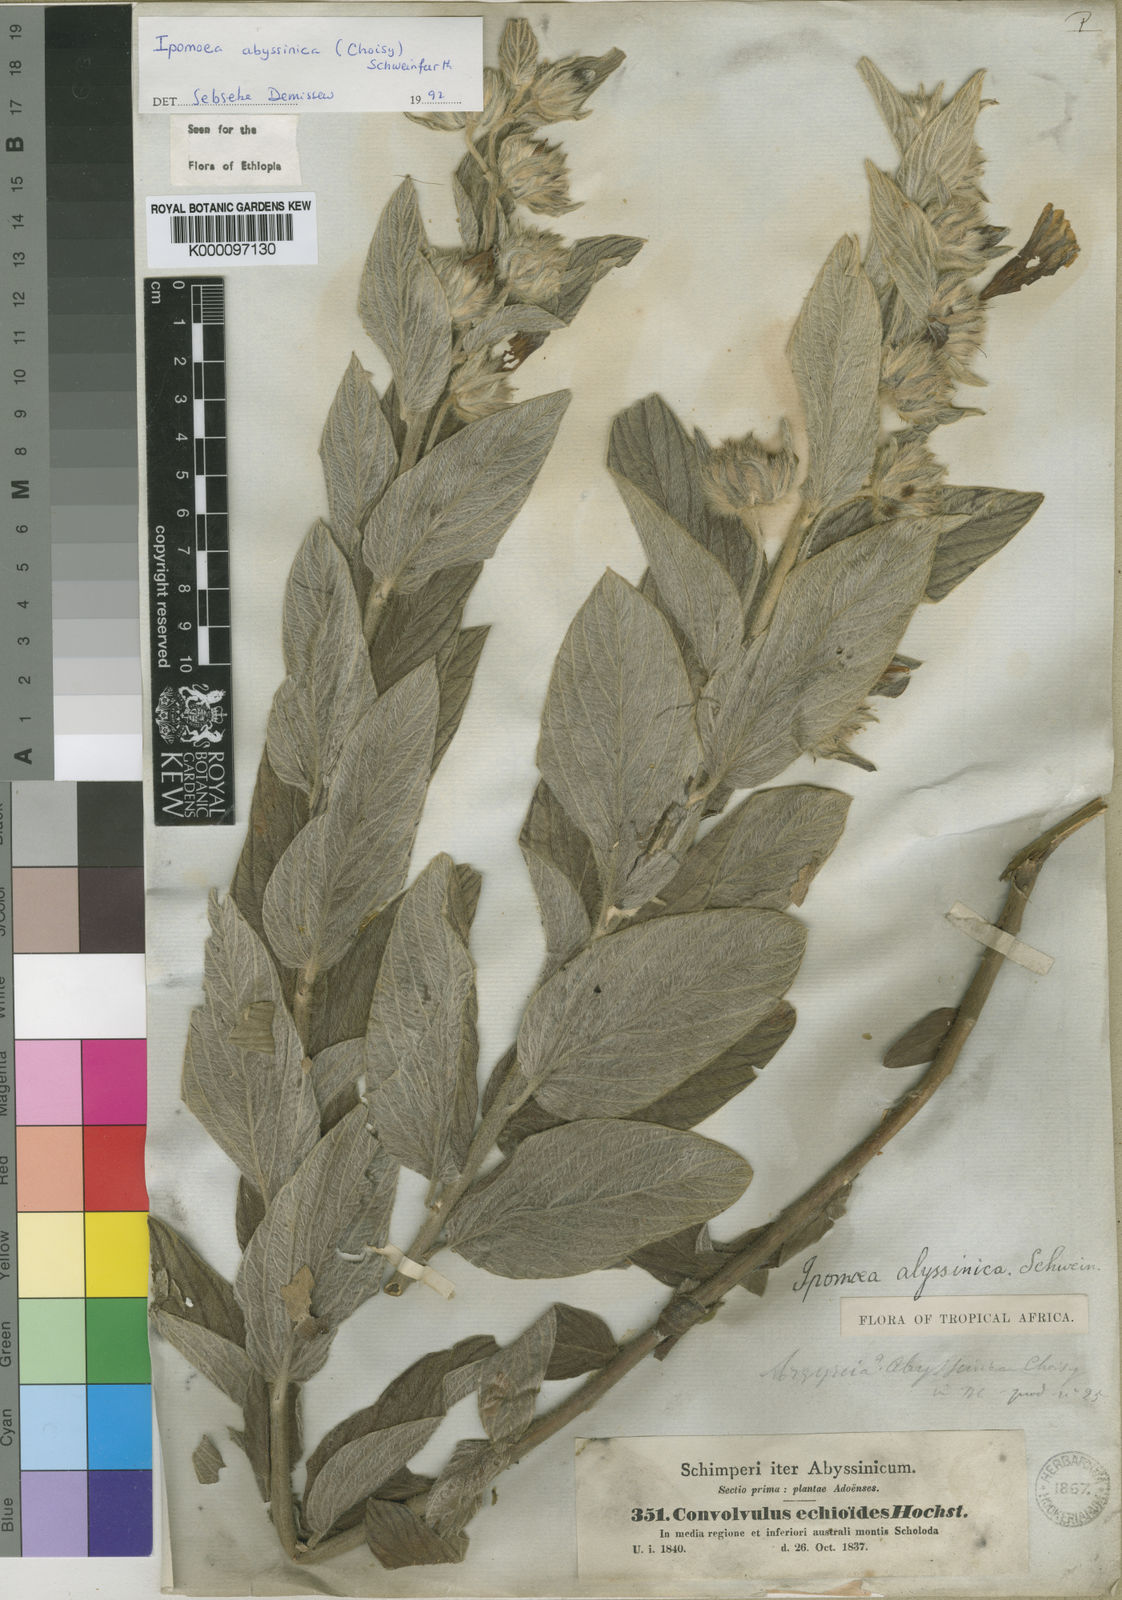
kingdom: Plantae
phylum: Tracheophyta
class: Magnoliopsida
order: Solanales
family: Convolvulaceae
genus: Ipomoea
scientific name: Ipomoea
